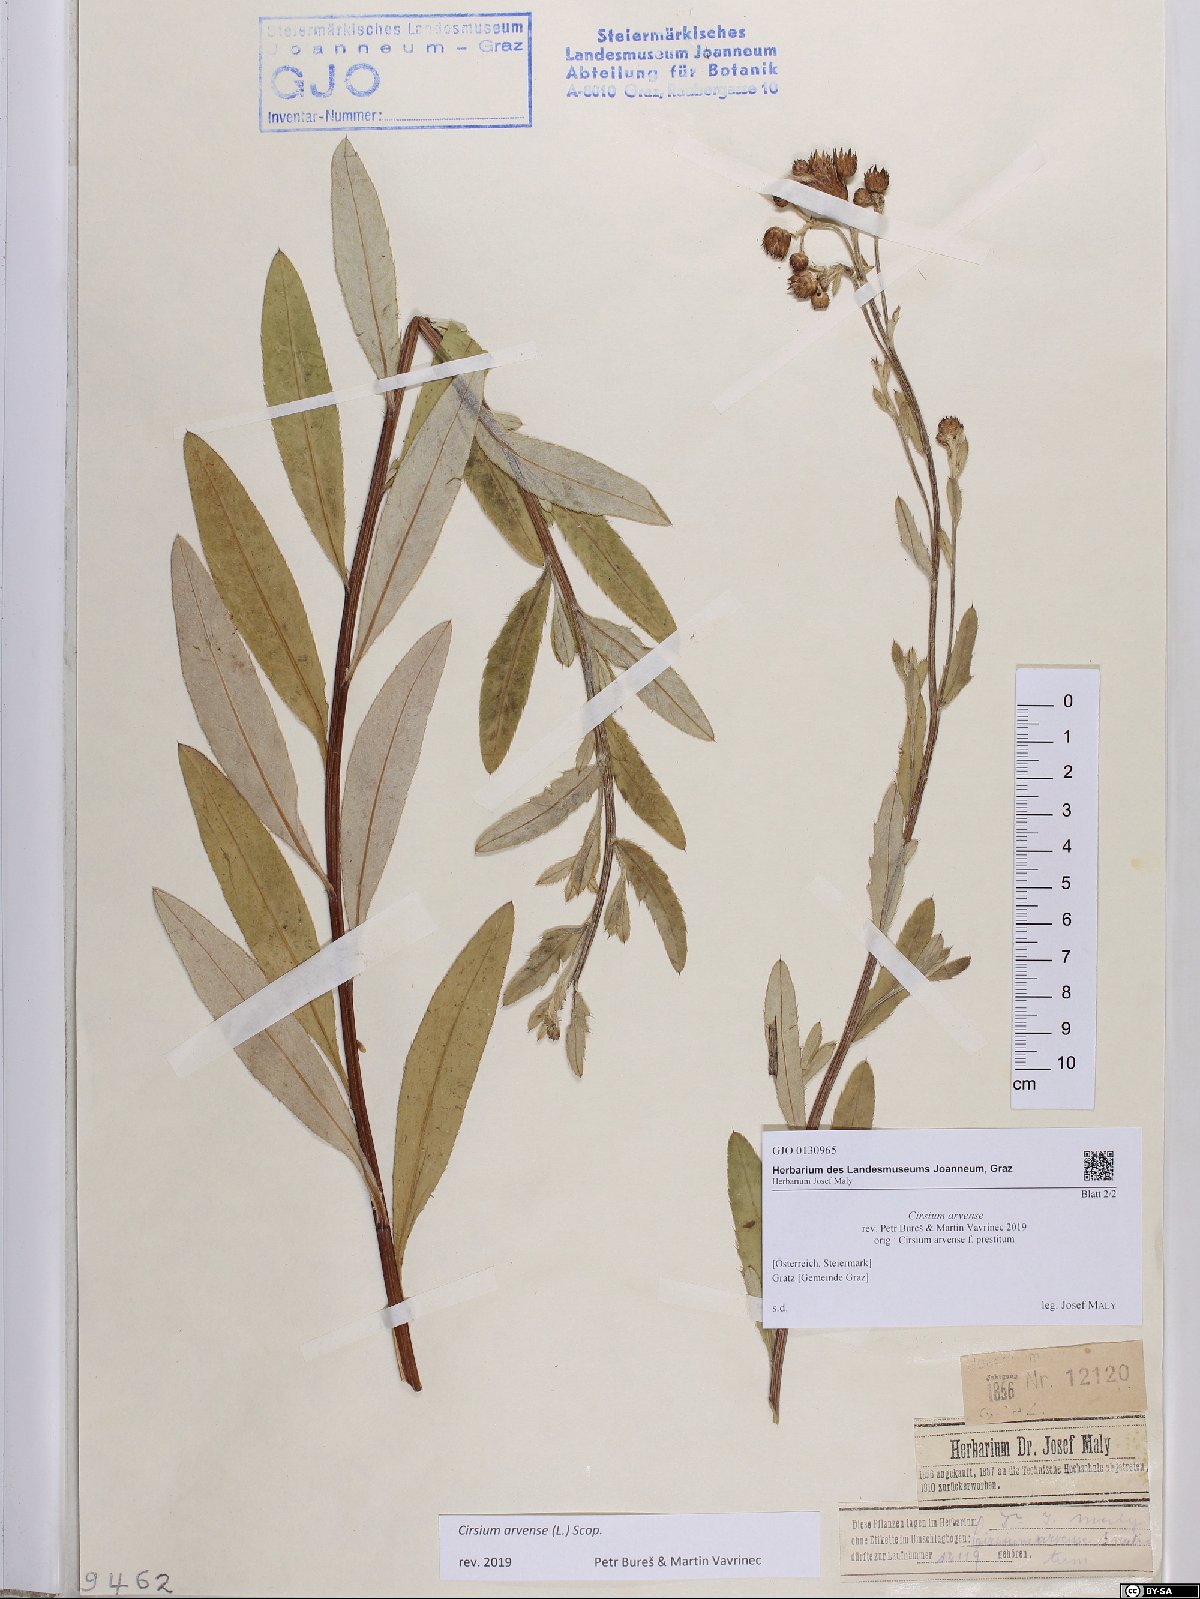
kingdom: Plantae
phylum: Tracheophyta
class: Magnoliopsida
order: Asterales
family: Asteraceae
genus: Cirsium
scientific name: Cirsium arvense
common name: Creeping thistle
